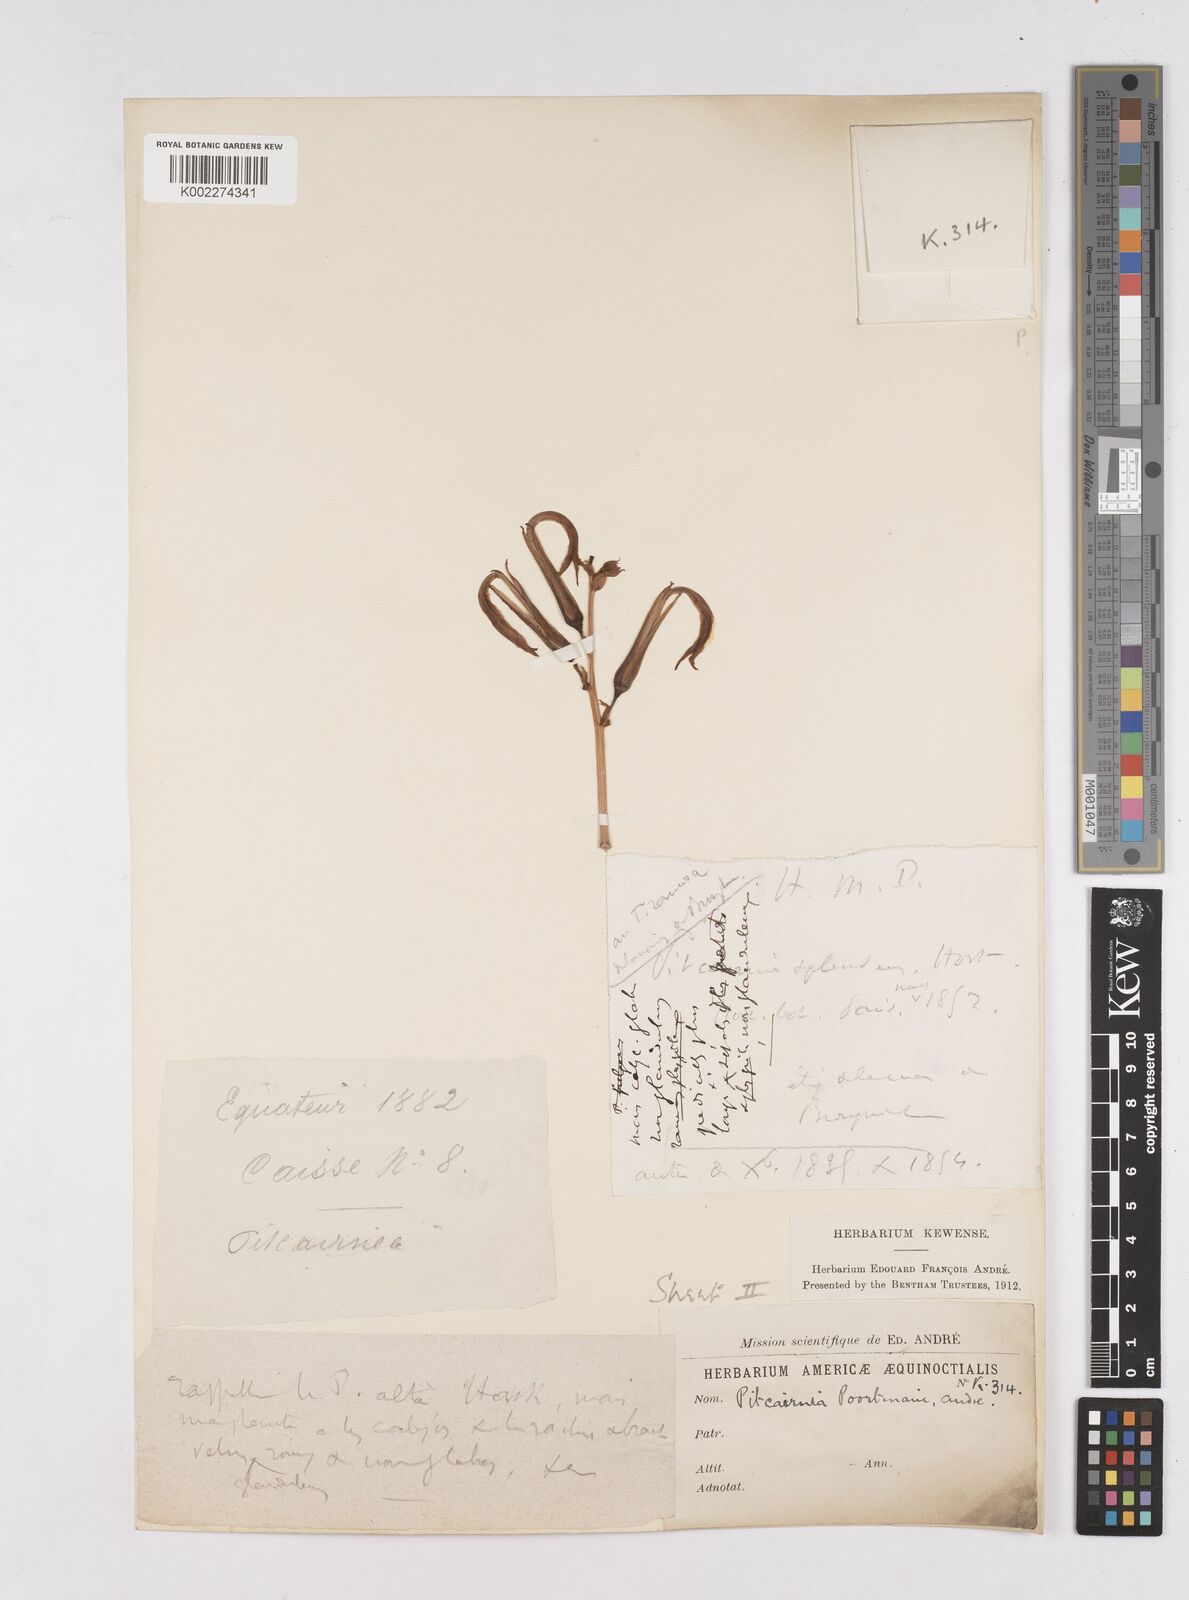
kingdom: Plantae
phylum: Tracheophyta
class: Liliopsida
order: Poales
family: Bromeliaceae
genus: Pitcairnia
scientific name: Pitcairnia poortmanii
